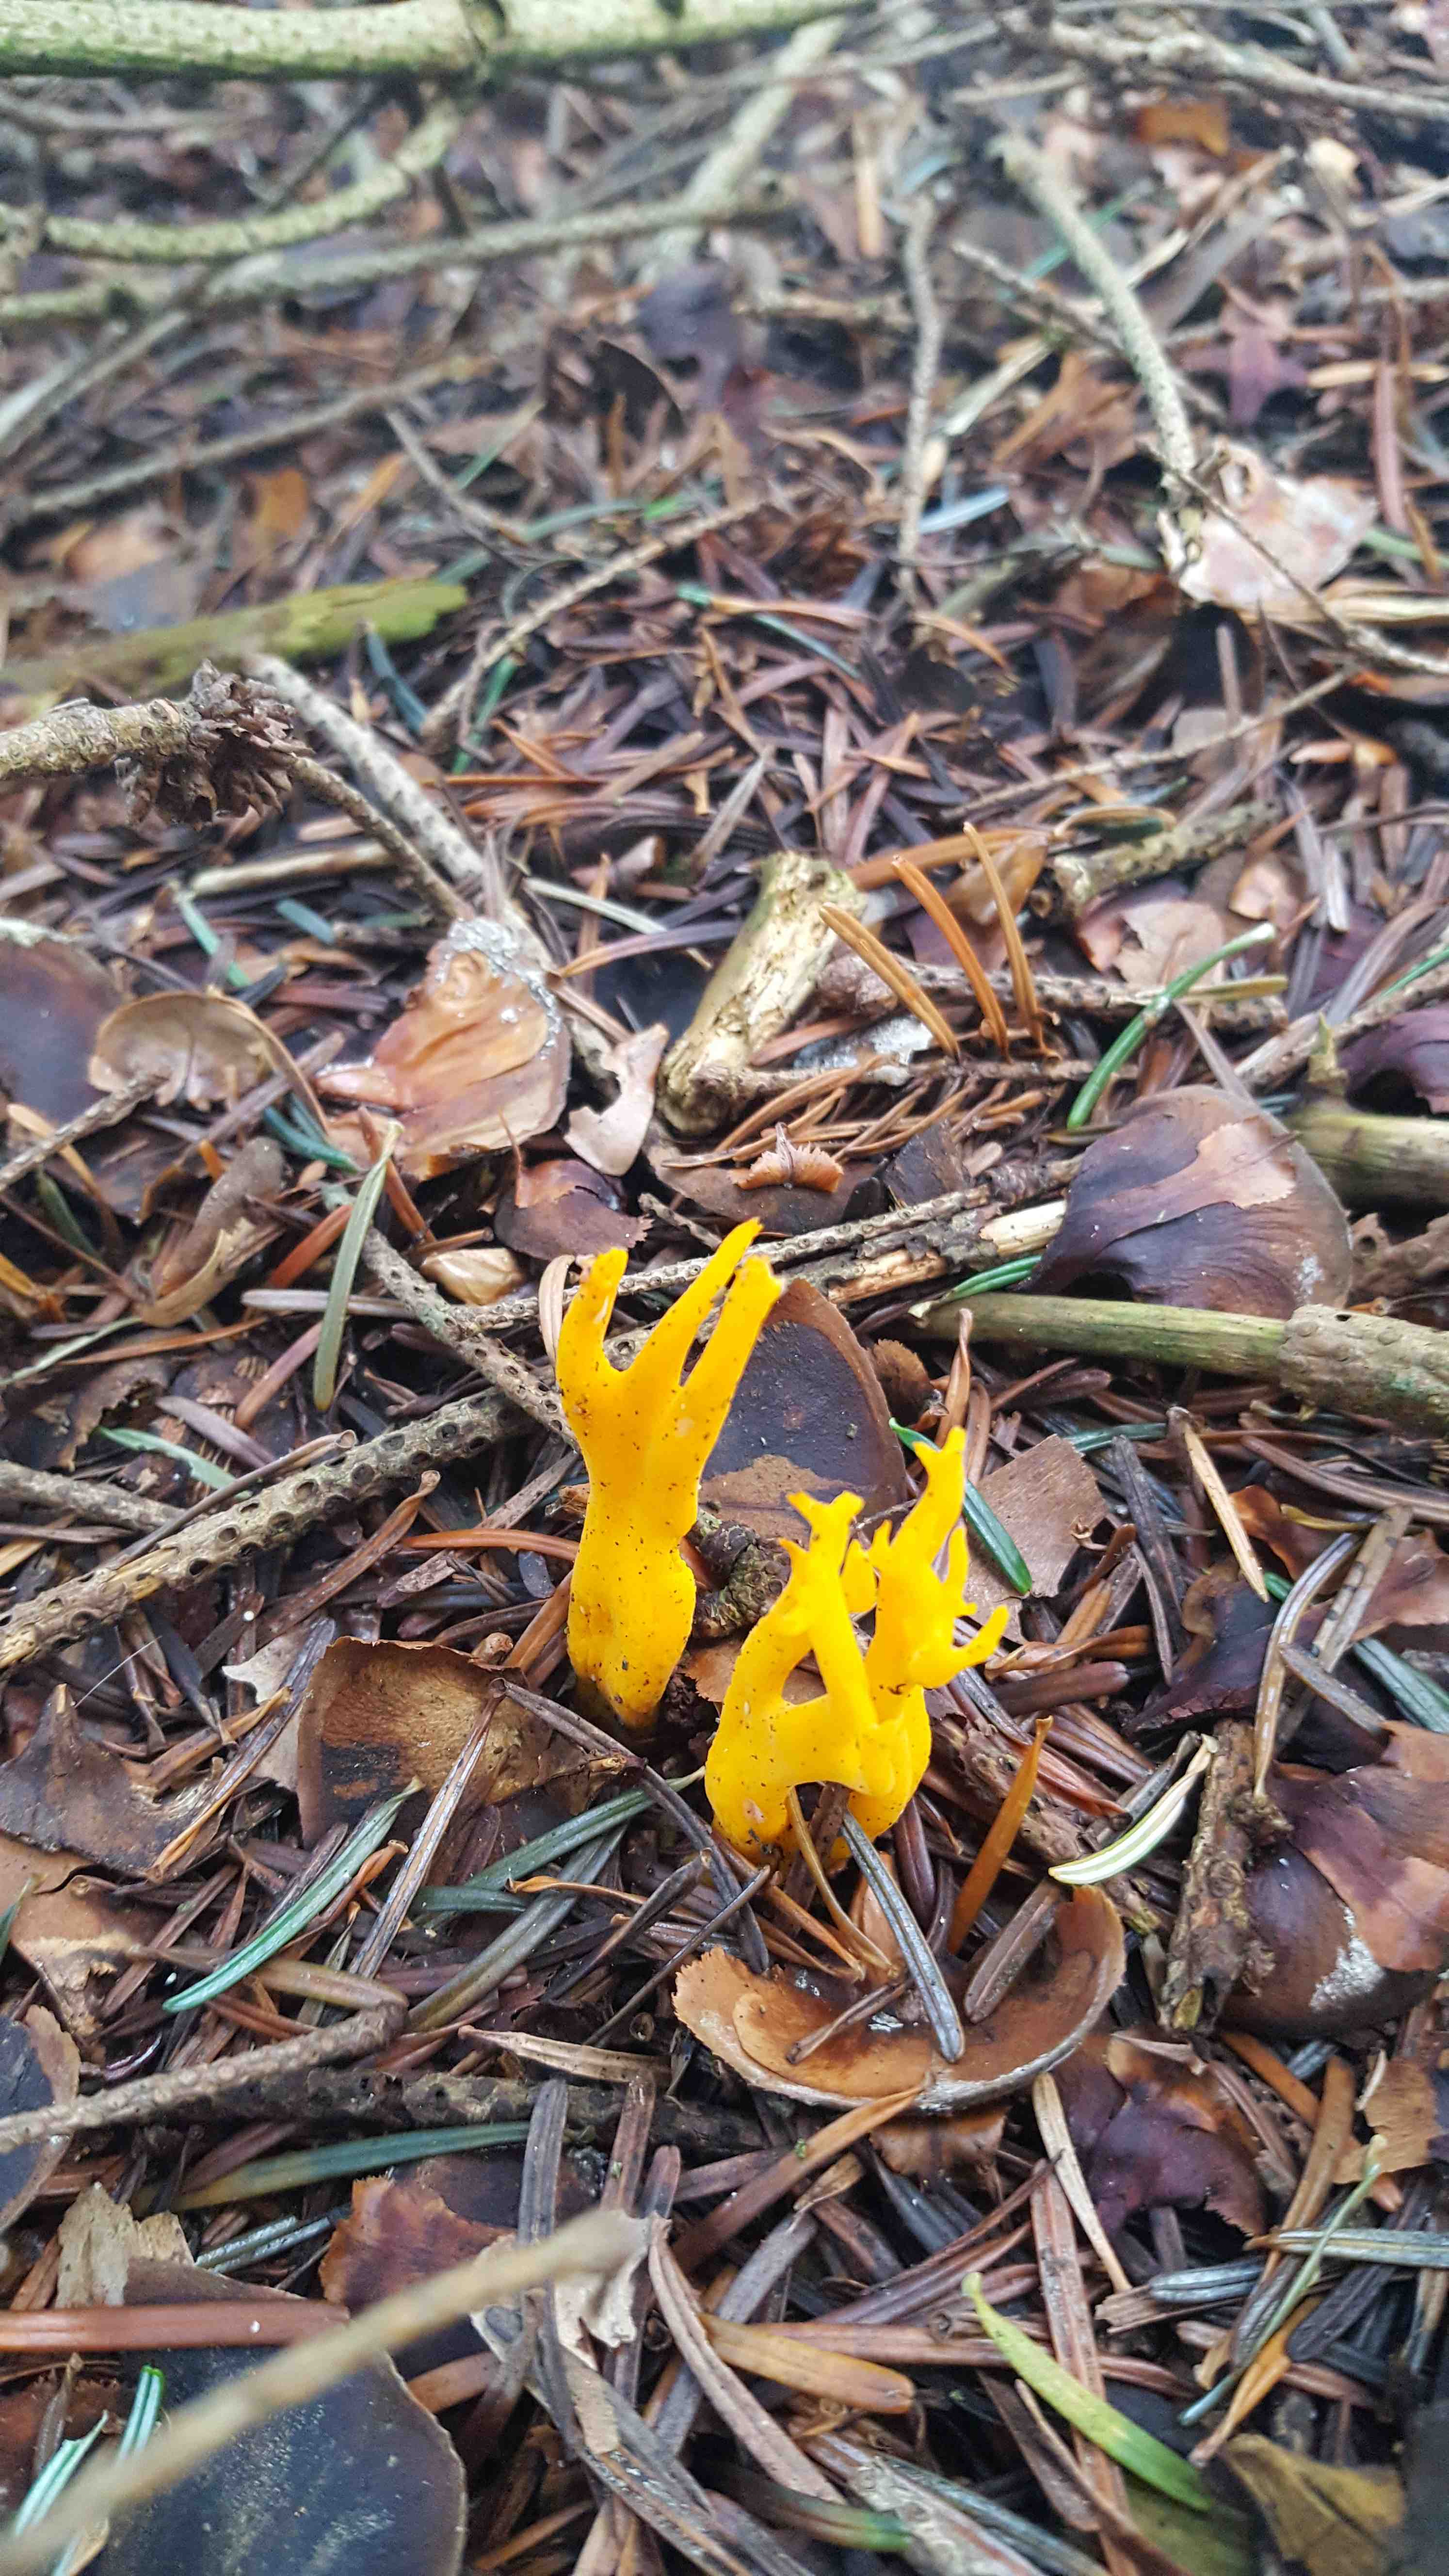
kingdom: Fungi
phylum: Basidiomycota
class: Dacrymycetes
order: Dacrymycetales
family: Dacrymycetaceae
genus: Calocera
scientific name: Calocera viscosa
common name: almindelig guldgaffel
